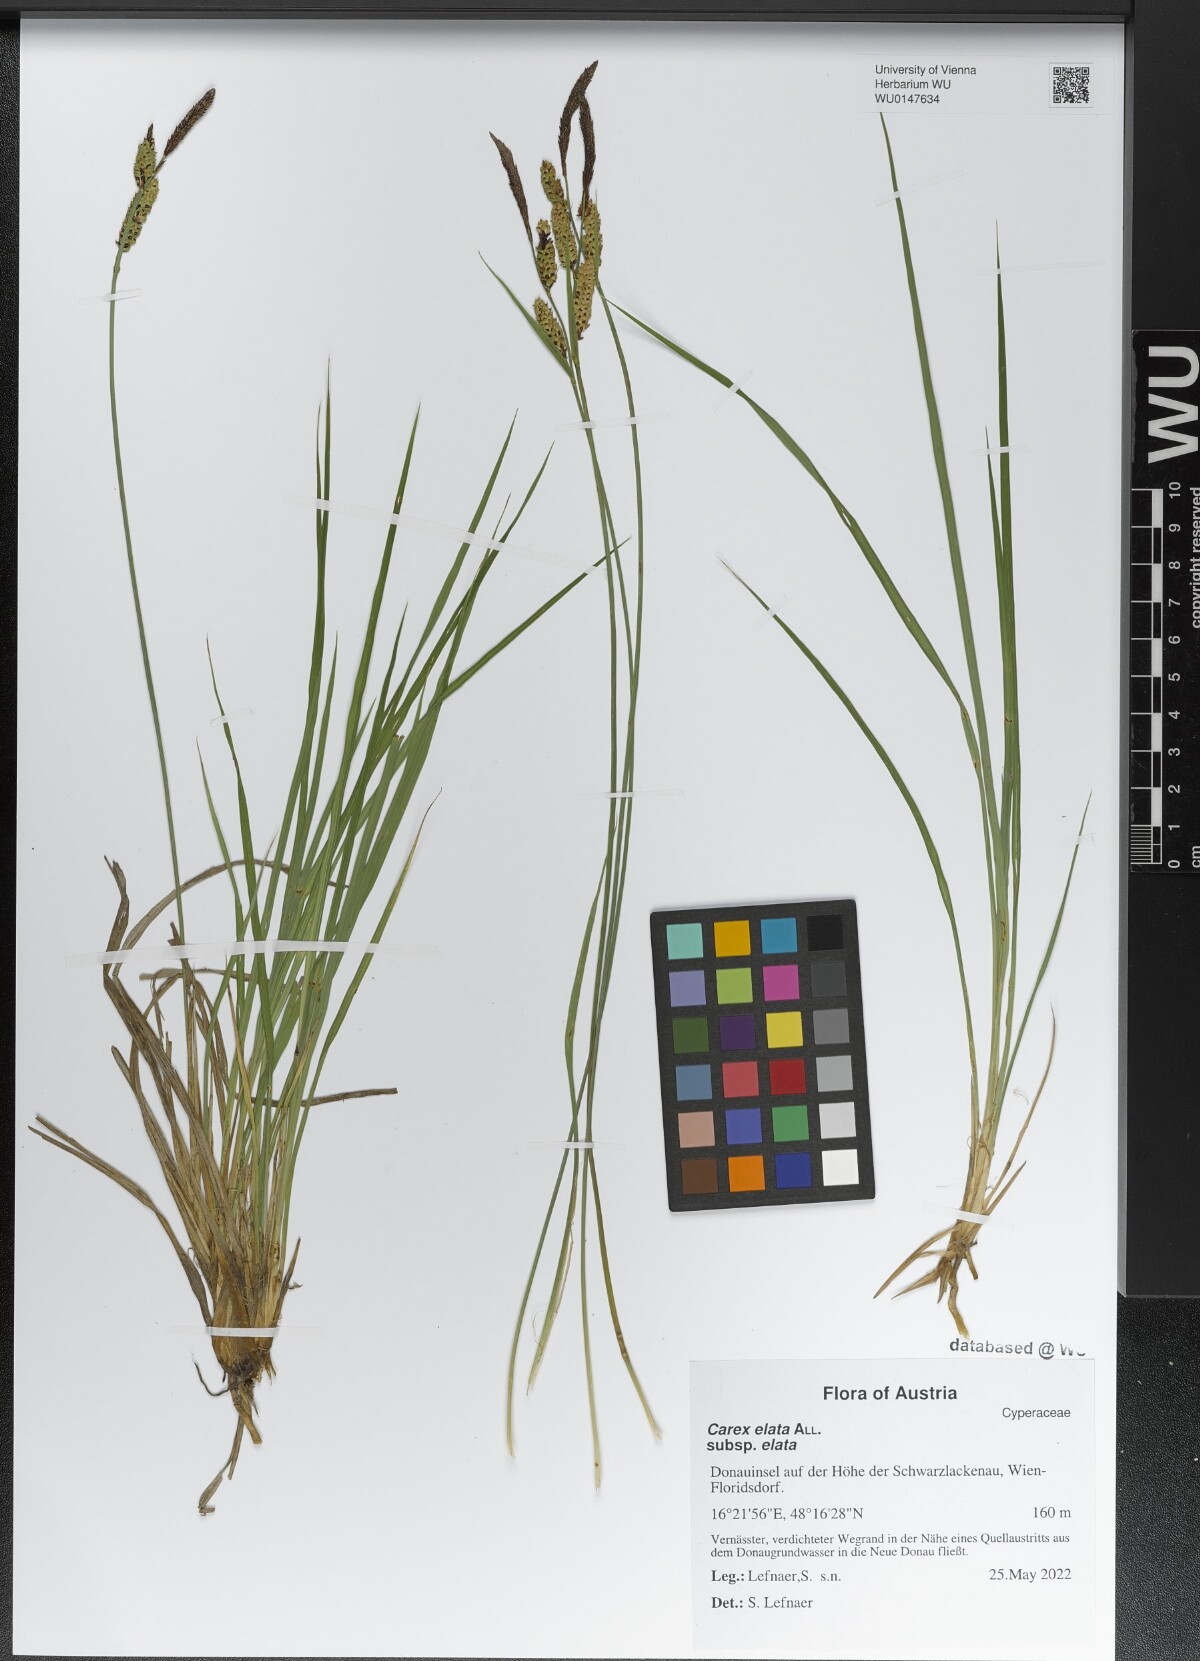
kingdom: Plantae
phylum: Tracheophyta
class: Liliopsida
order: Poales
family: Cyperaceae
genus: Carex
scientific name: Carex elata
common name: Tufted sedge
